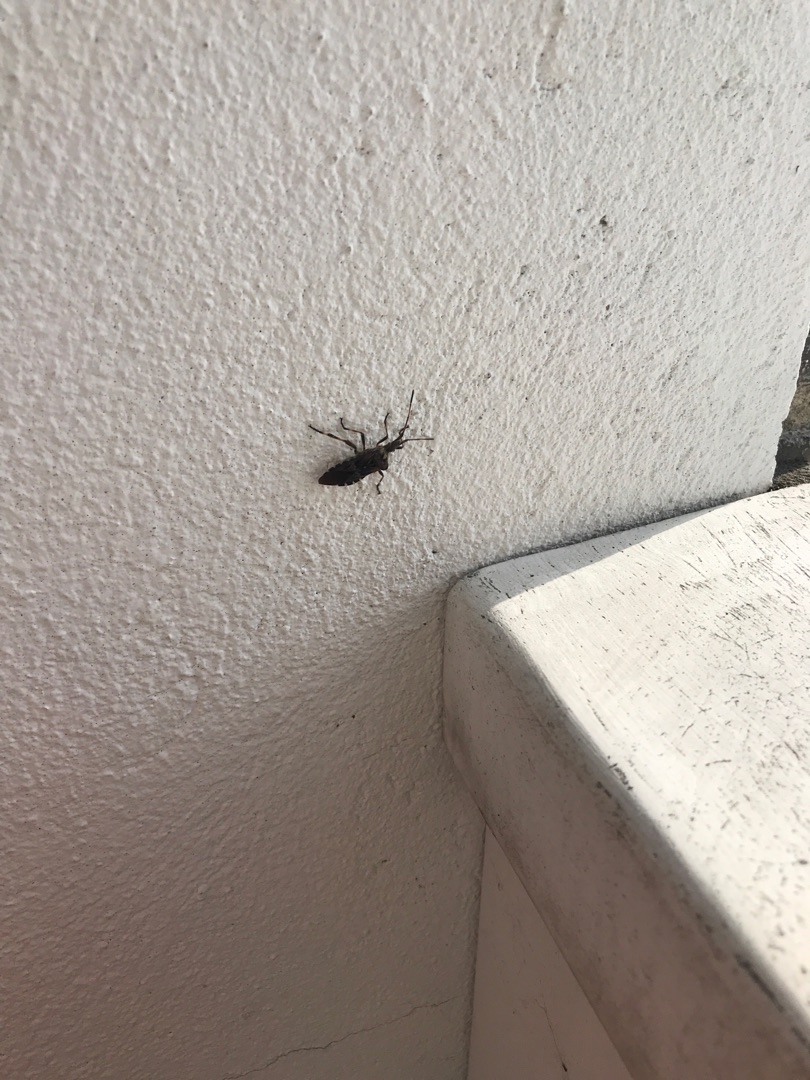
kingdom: Animalia
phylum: Arthropoda
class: Insecta
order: Hemiptera
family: Coreidae
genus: Leptoglossus
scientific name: Leptoglossus occidentalis
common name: Amerikansk fyrretæge
